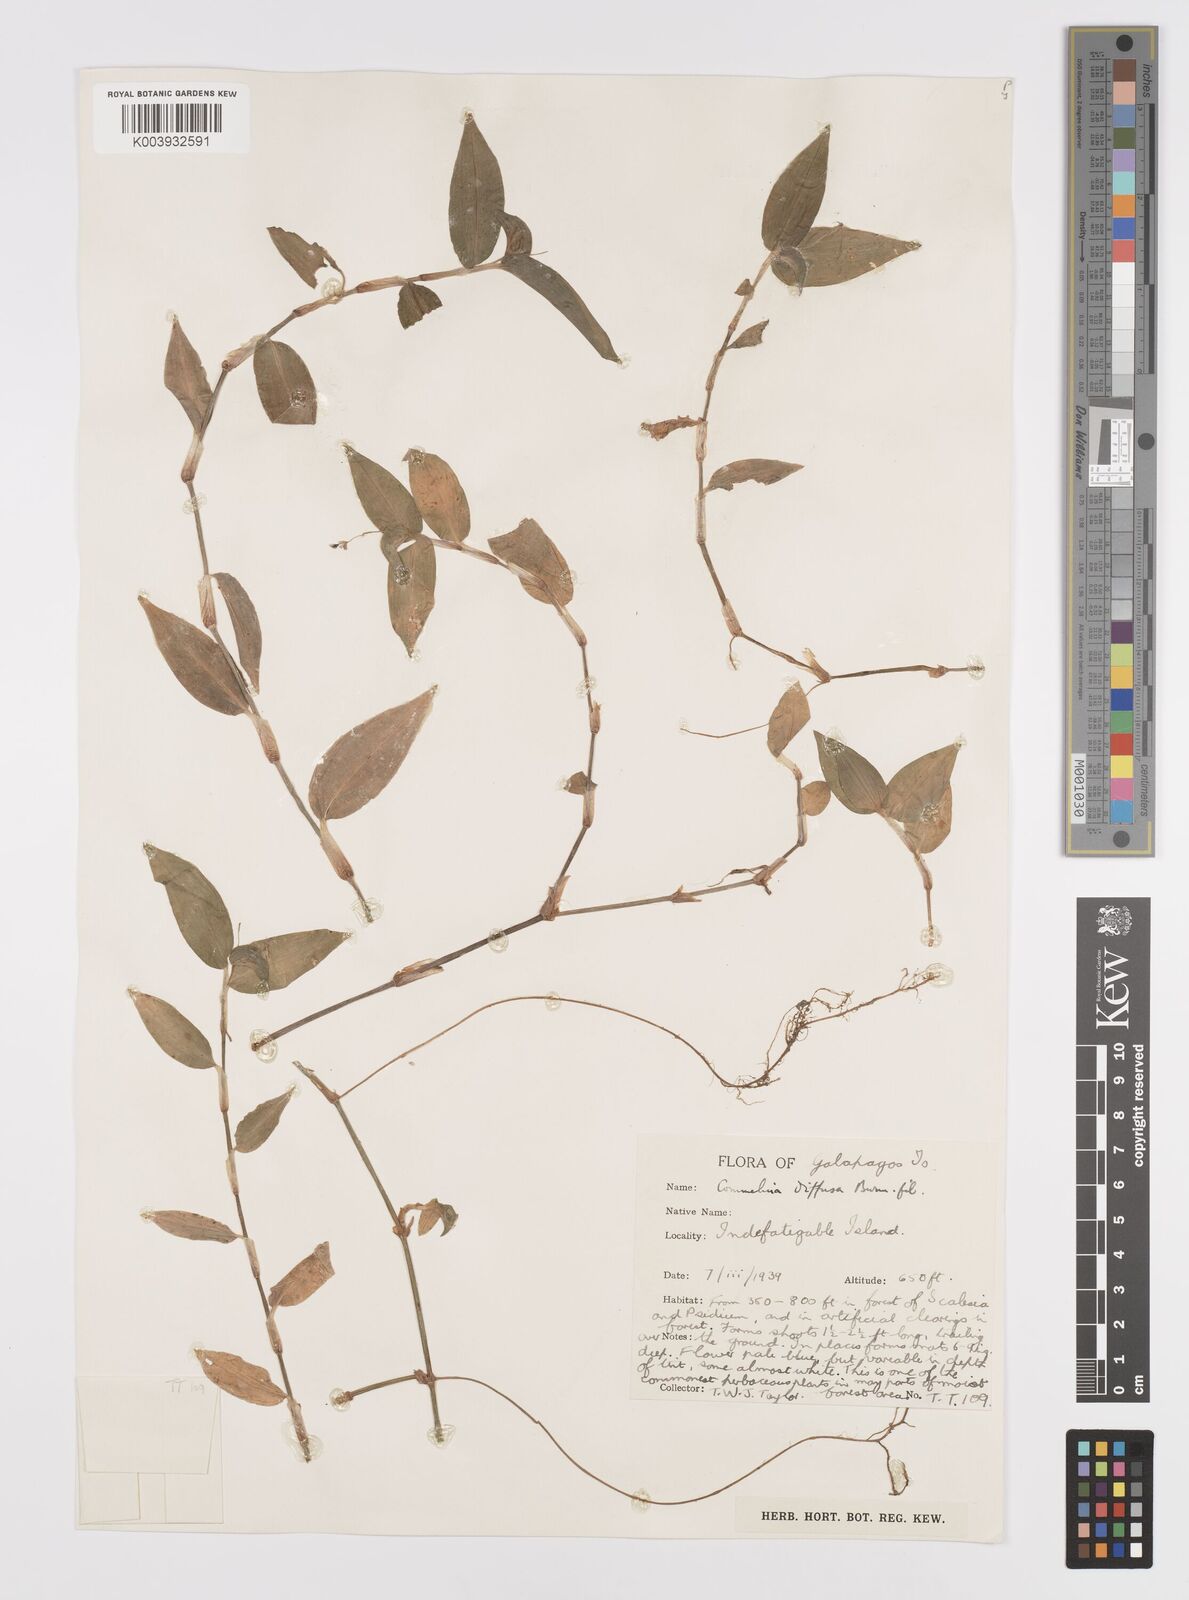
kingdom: Plantae
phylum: Tracheophyta
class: Liliopsida
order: Commelinales
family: Commelinaceae
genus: Commelina
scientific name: Commelina diffusa
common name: Climbing dayflower
